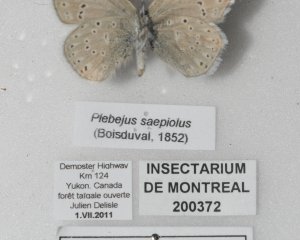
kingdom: Animalia
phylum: Arthropoda
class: Insecta
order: Lepidoptera
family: Lycaenidae
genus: Plebejus
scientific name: Plebejus saepiolus
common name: Greenish Blue
